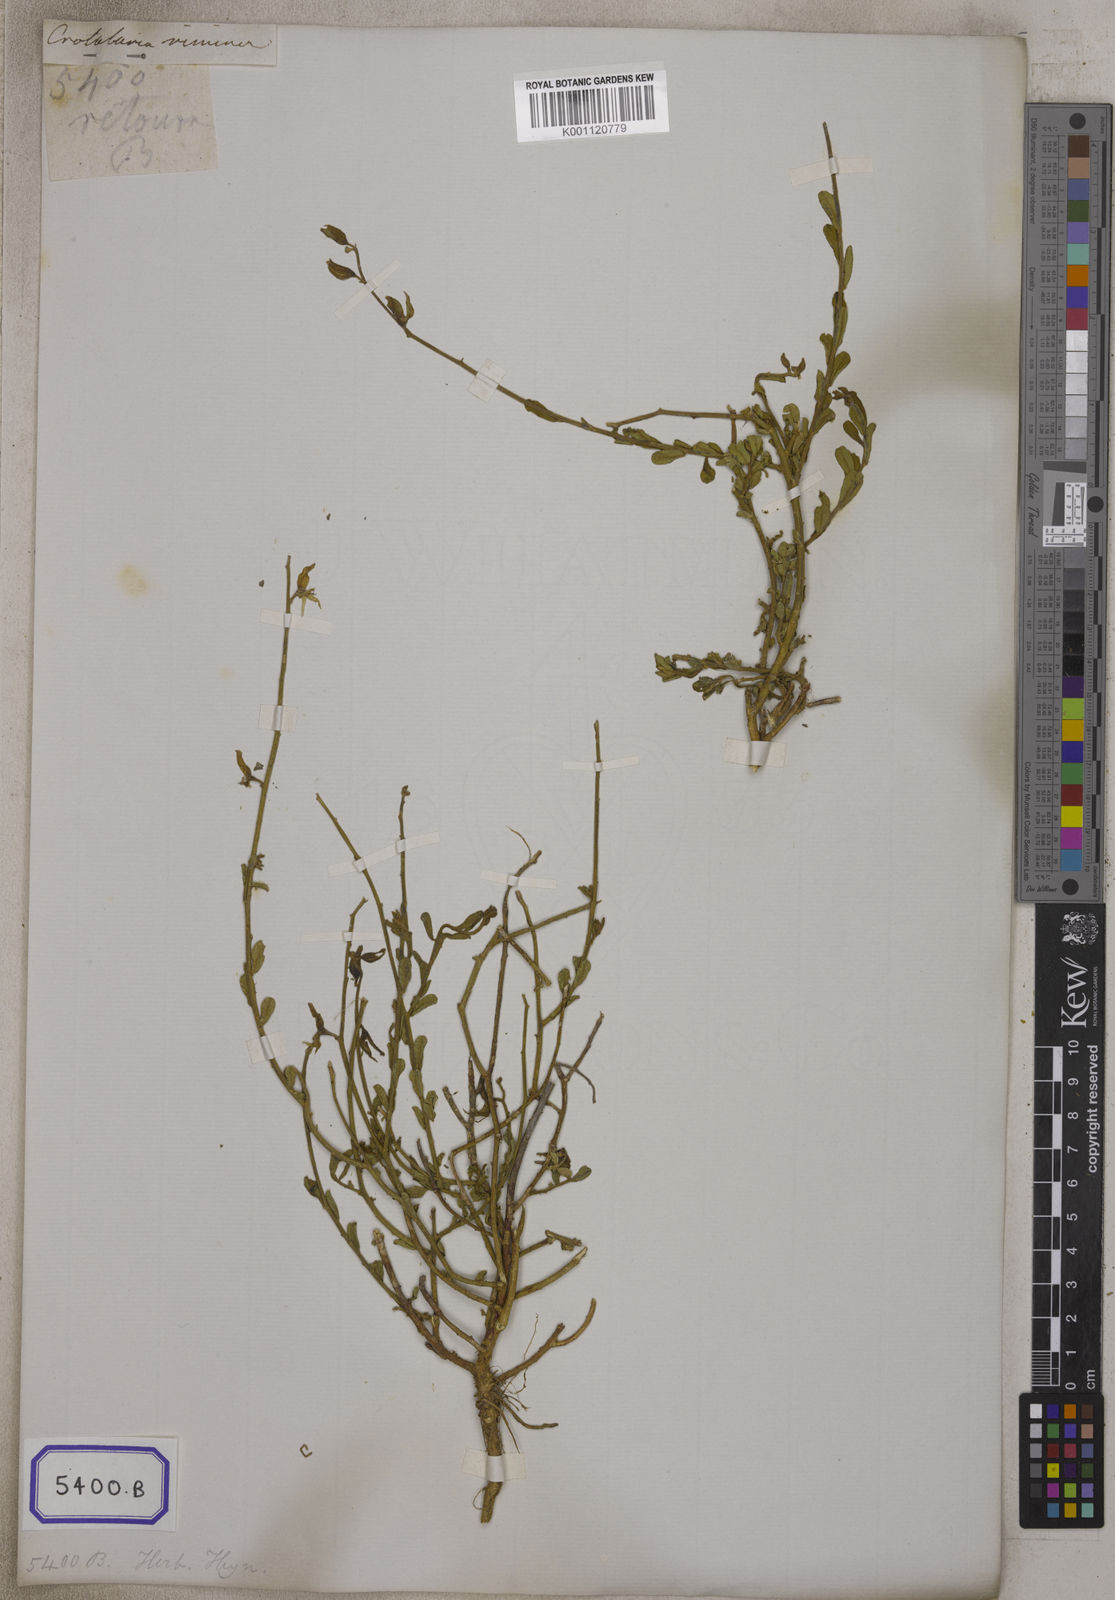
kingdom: Plantae
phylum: Tracheophyta
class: Magnoliopsida
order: Fabales
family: Fabaceae
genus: Crotalaria
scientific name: Crotalaria linifolia
